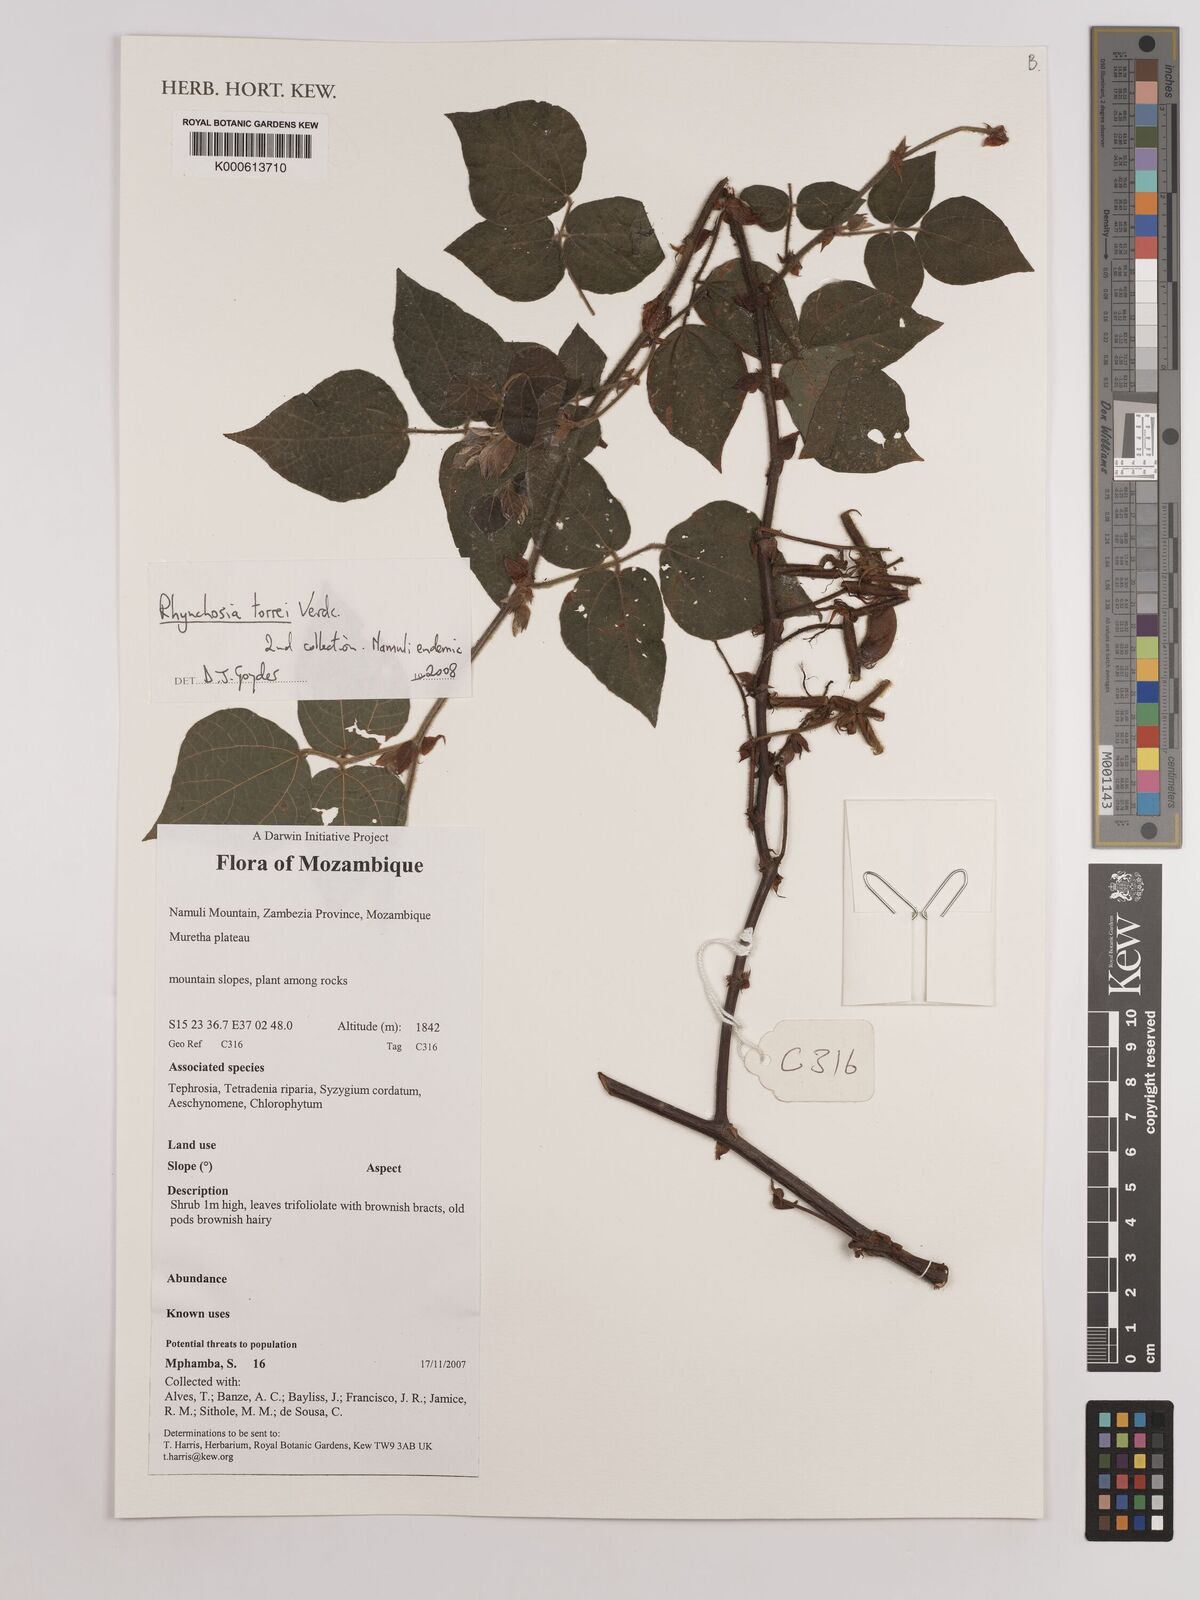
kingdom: Plantae
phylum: Tracheophyta
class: Magnoliopsida
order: Fabales
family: Fabaceae
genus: Rhynchosia
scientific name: Rhynchosia torrei
